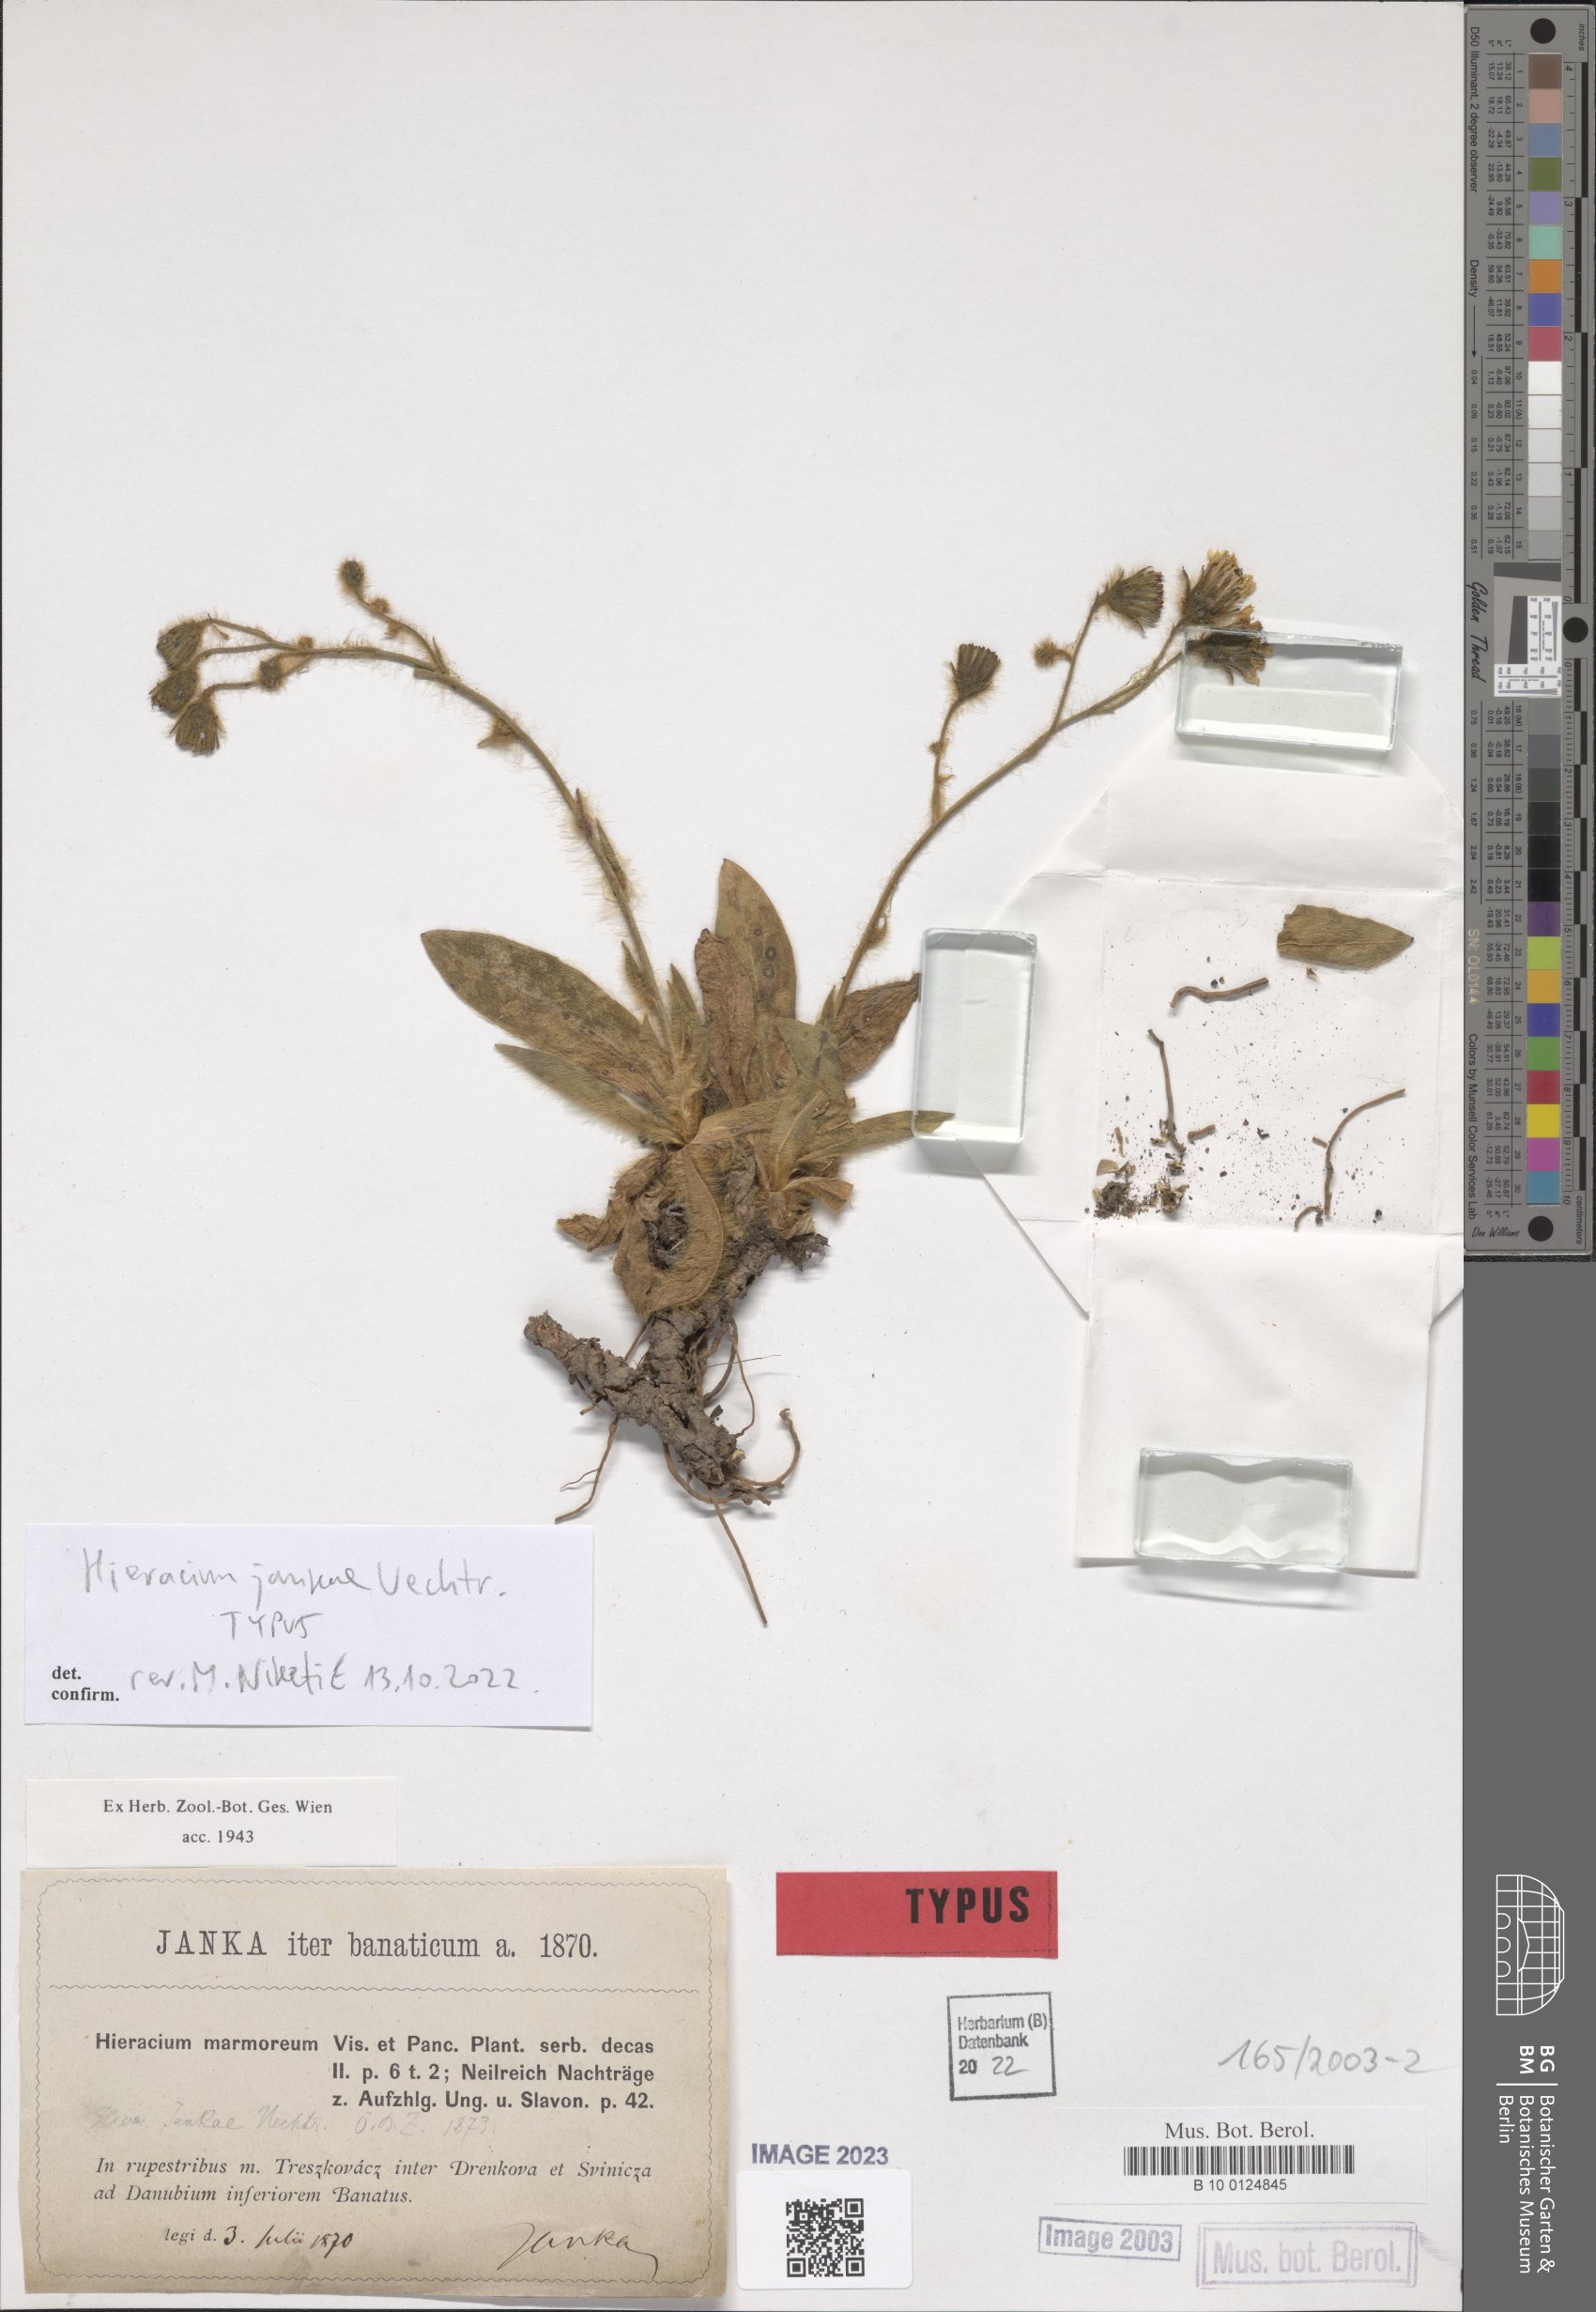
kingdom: Plantae
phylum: Tracheophyta
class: Magnoliopsida
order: Asterales
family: Asteraceae
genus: Hieracium
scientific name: Hieracium jankae
